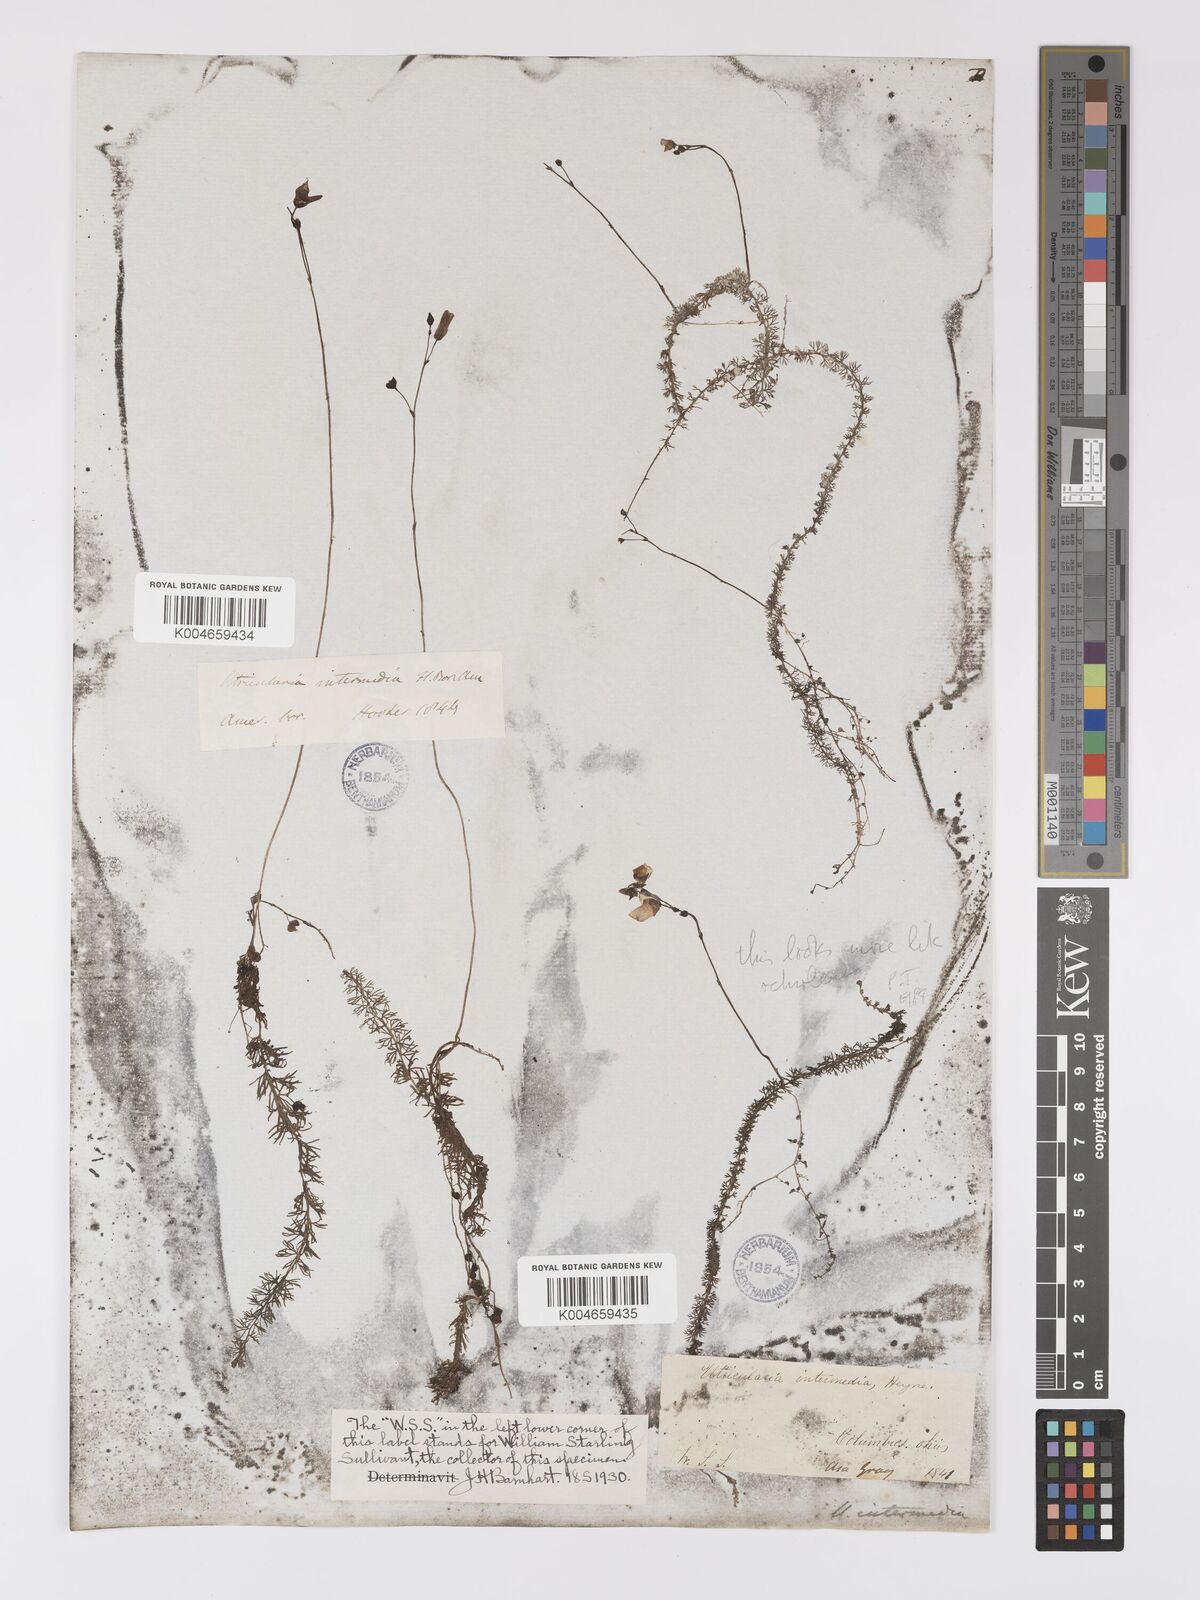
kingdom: Plantae
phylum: Tracheophyta
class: Magnoliopsida
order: Lamiales
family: Lentibulariaceae
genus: Utricularia
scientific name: Utricularia intermedia
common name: Intermediate bladderwort
